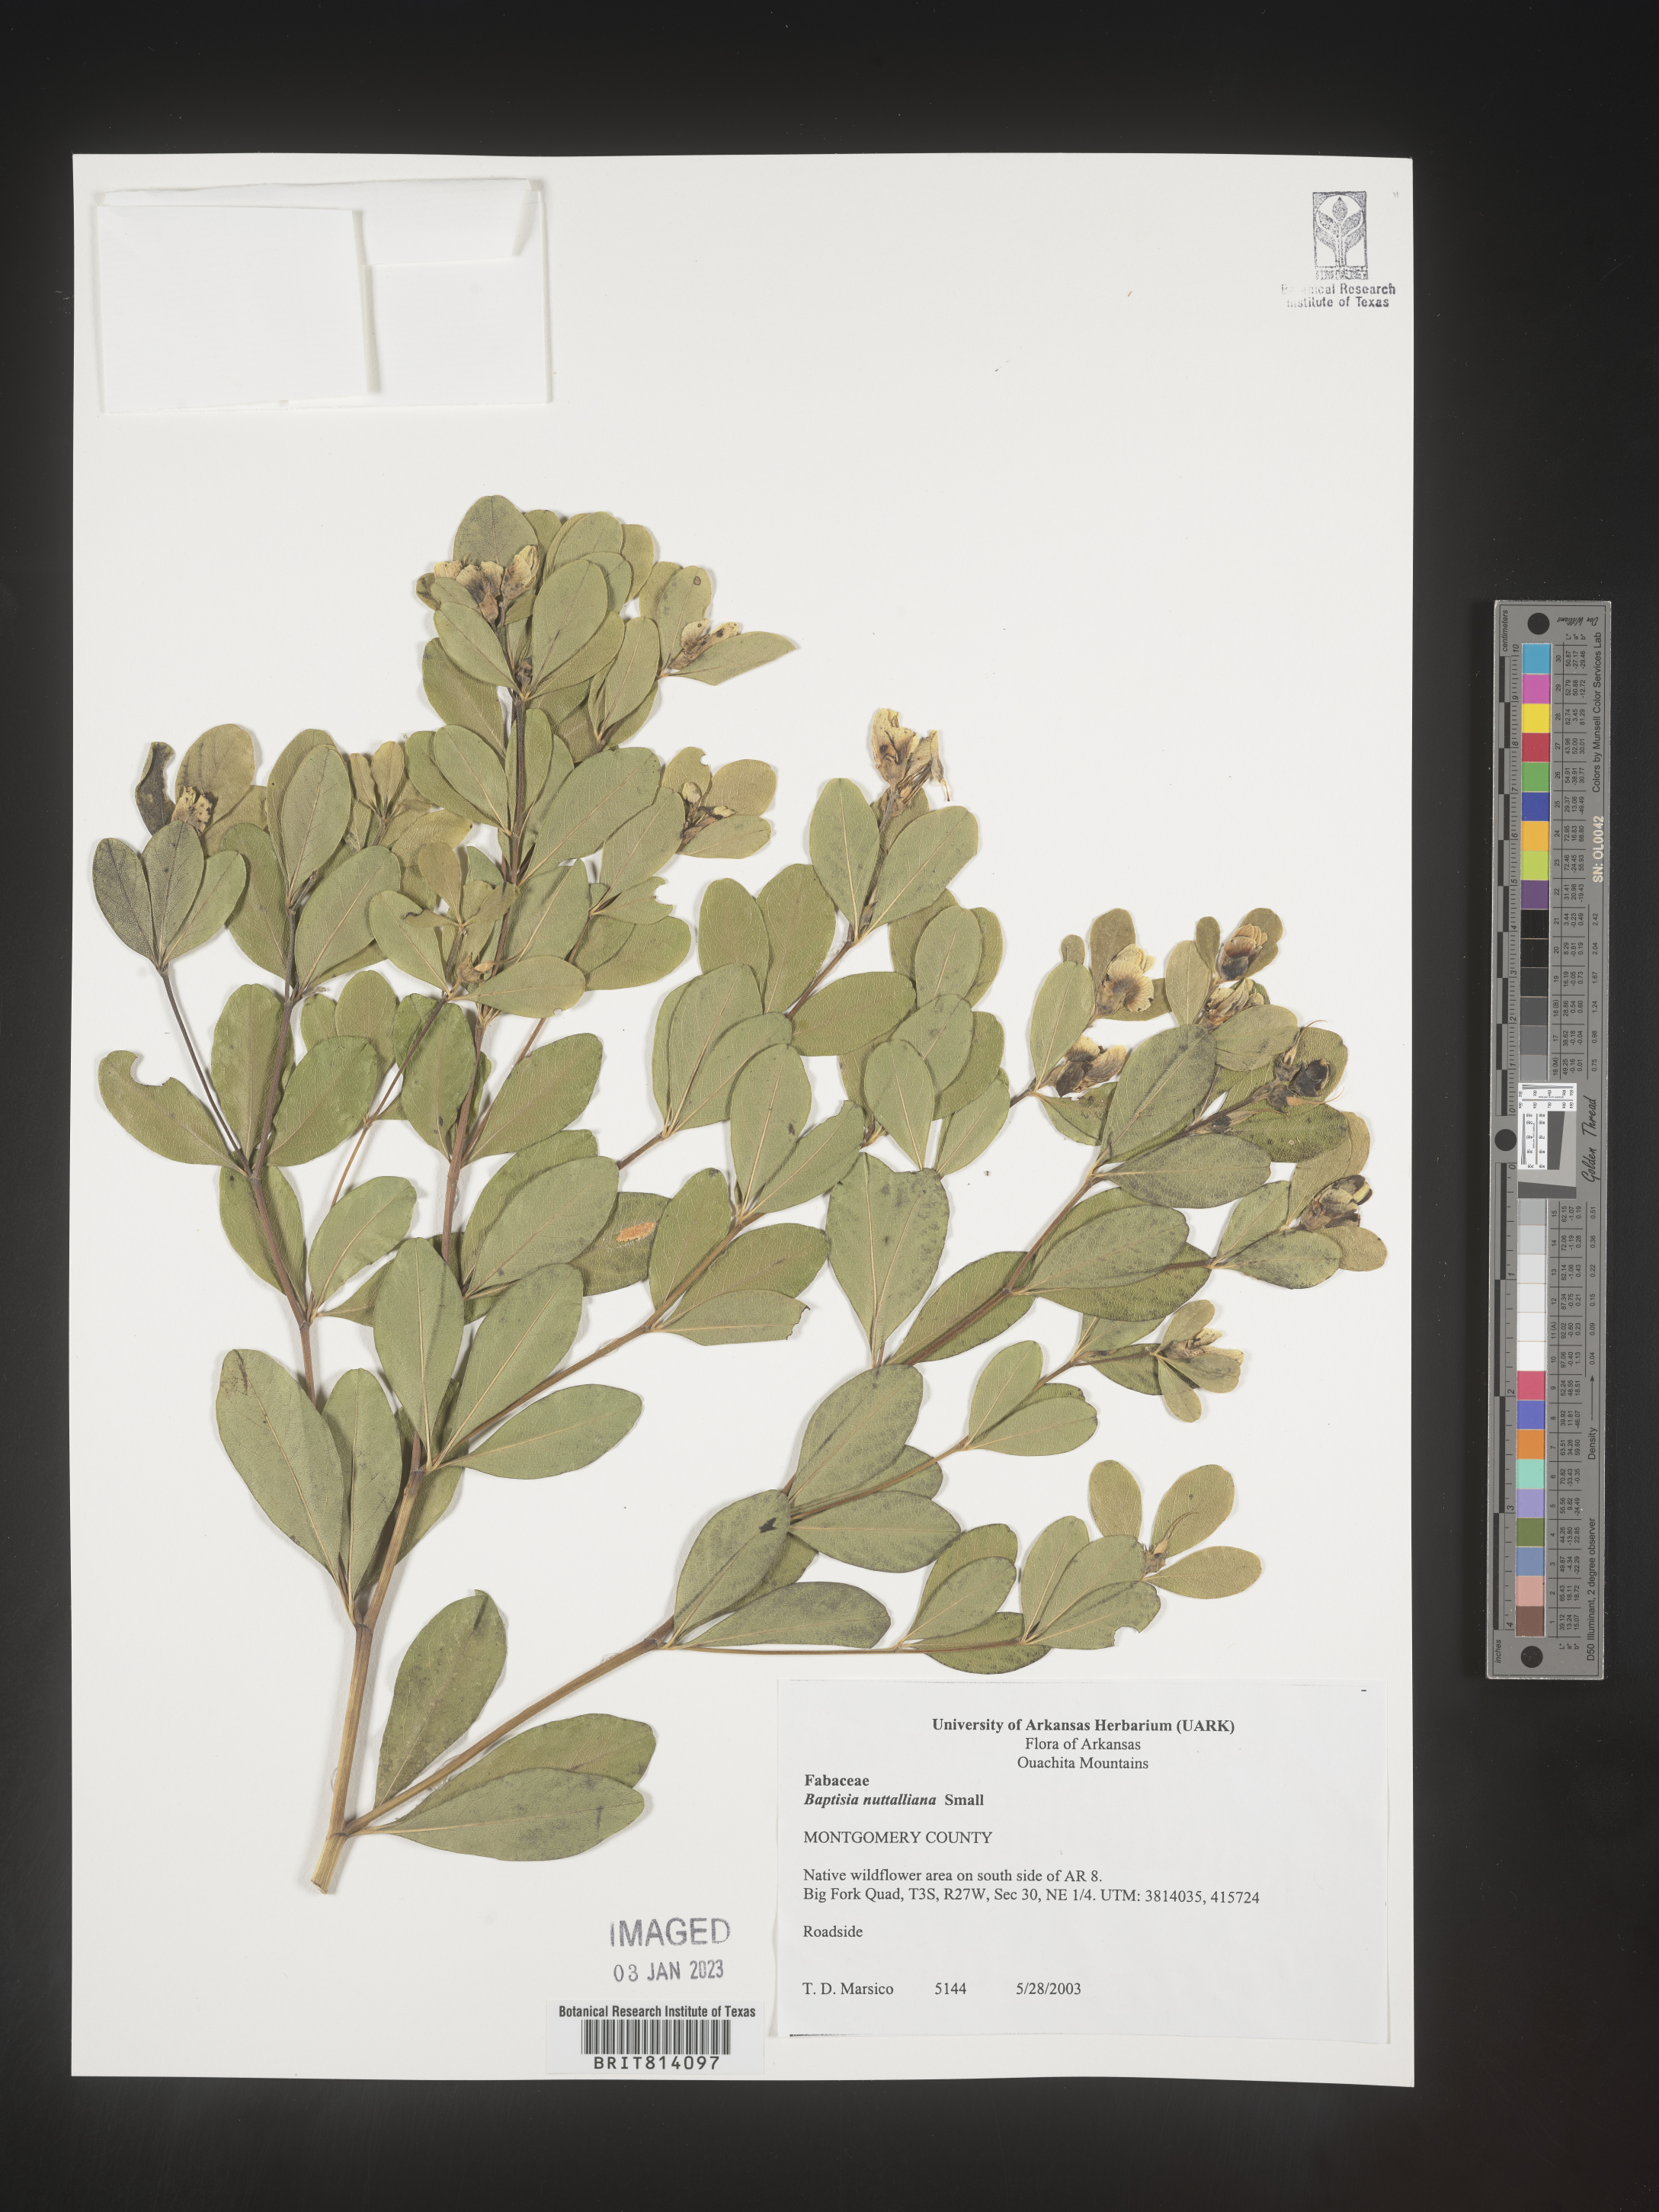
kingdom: Plantae
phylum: Tracheophyta
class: Magnoliopsida
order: Fabales
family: Fabaceae
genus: Baptisia
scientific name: Baptisia nuttalliana
